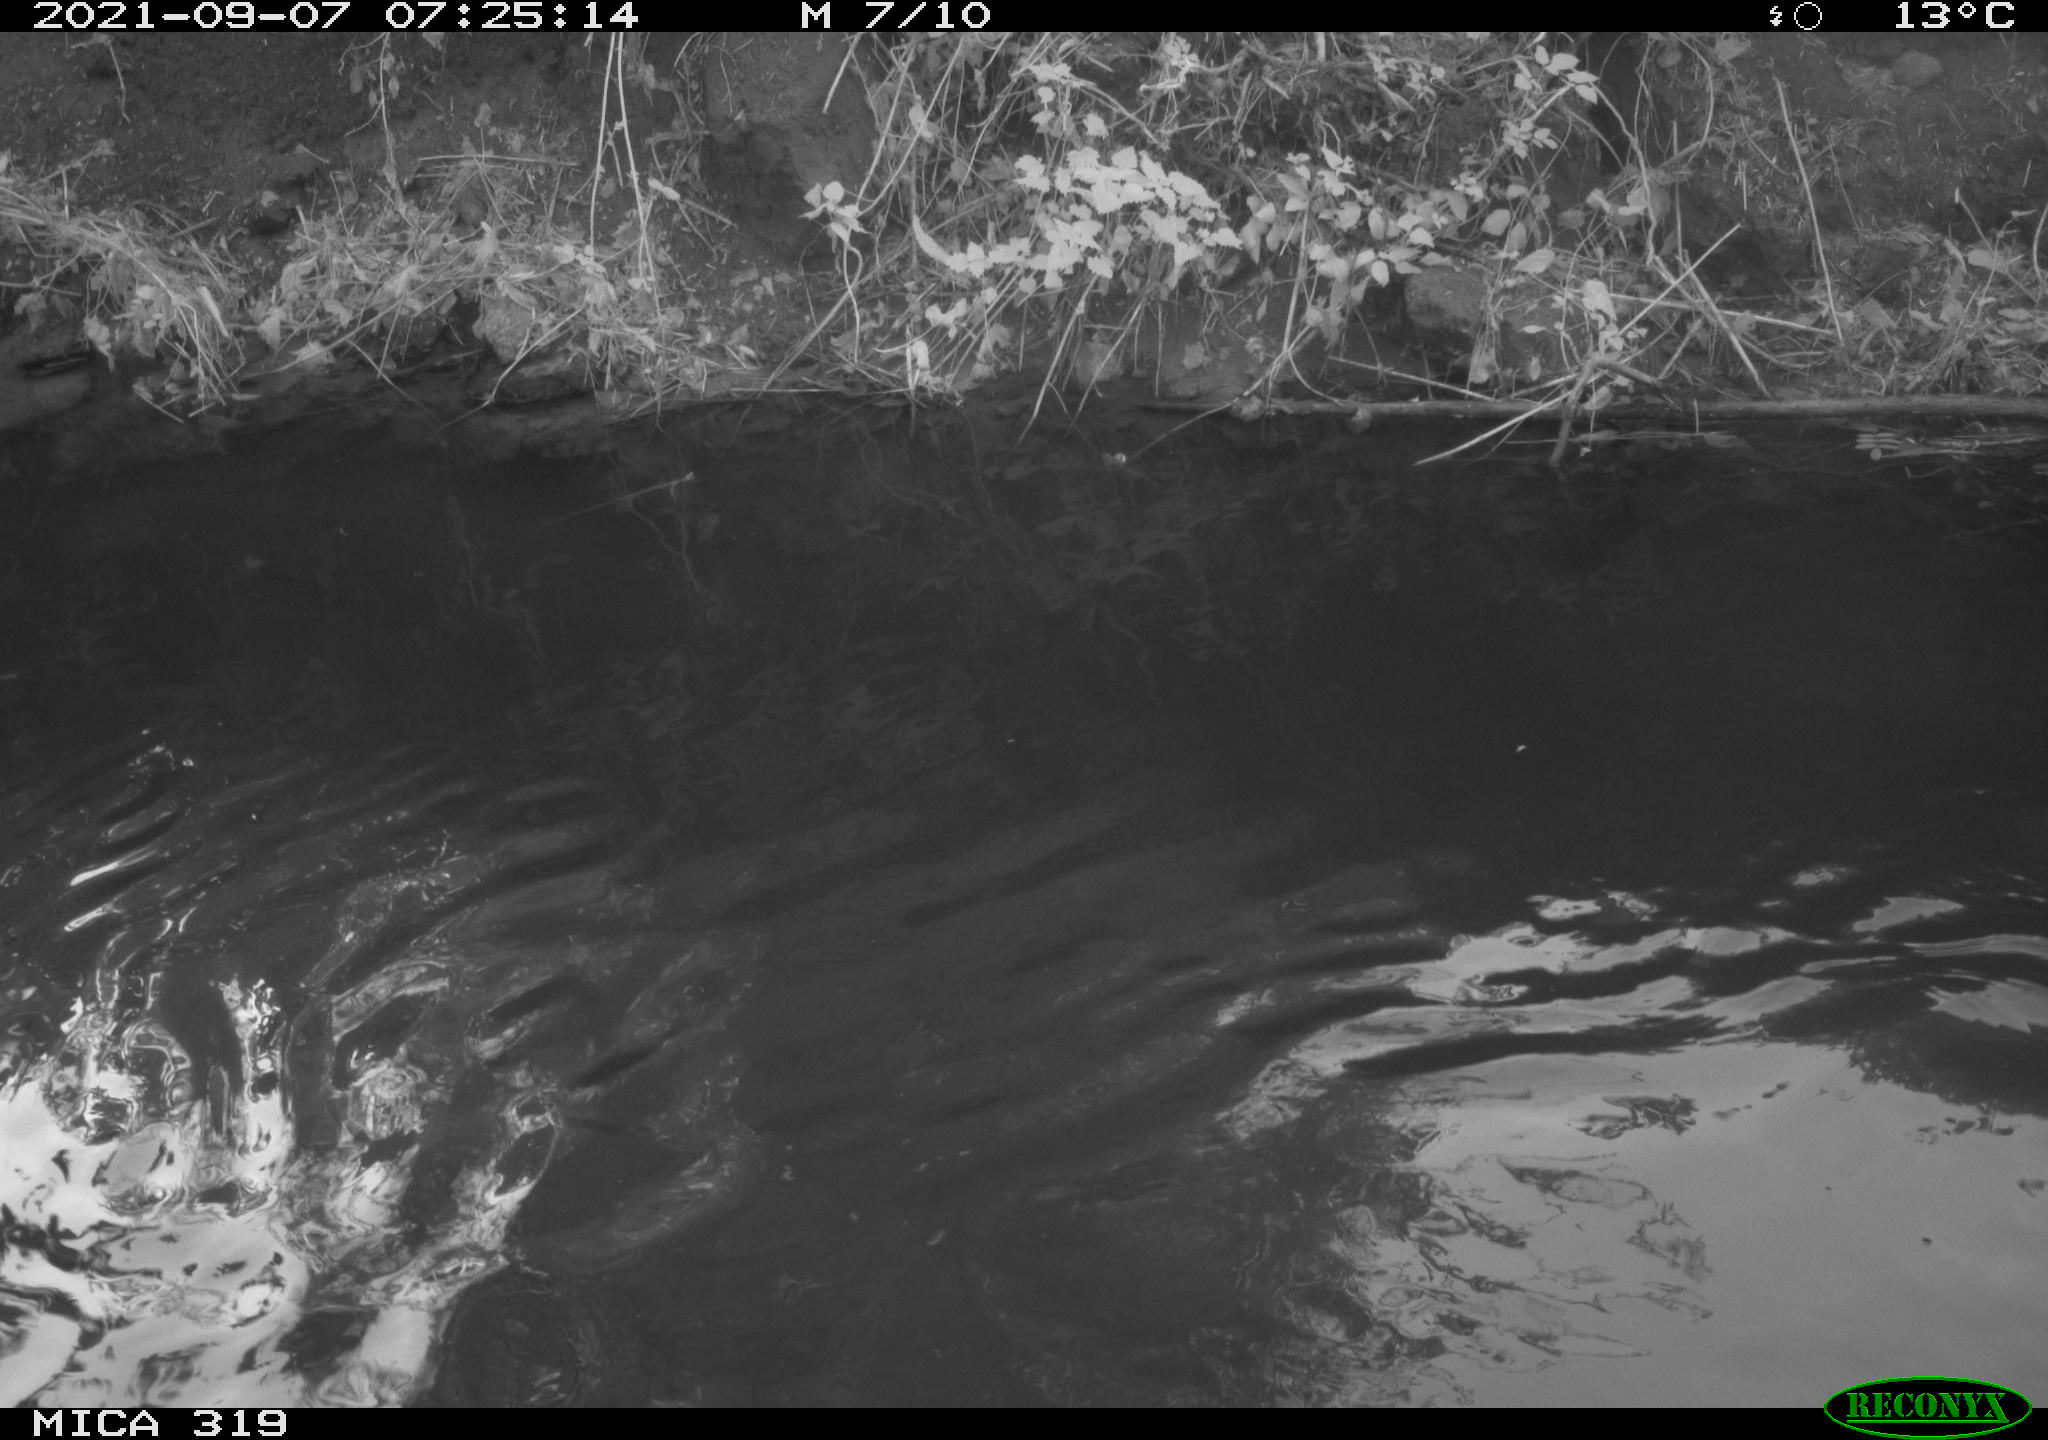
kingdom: Animalia
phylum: Chordata
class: Aves
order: Anseriformes
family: Anatidae
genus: Anas
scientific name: Anas platyrhynchos
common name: Mallard
